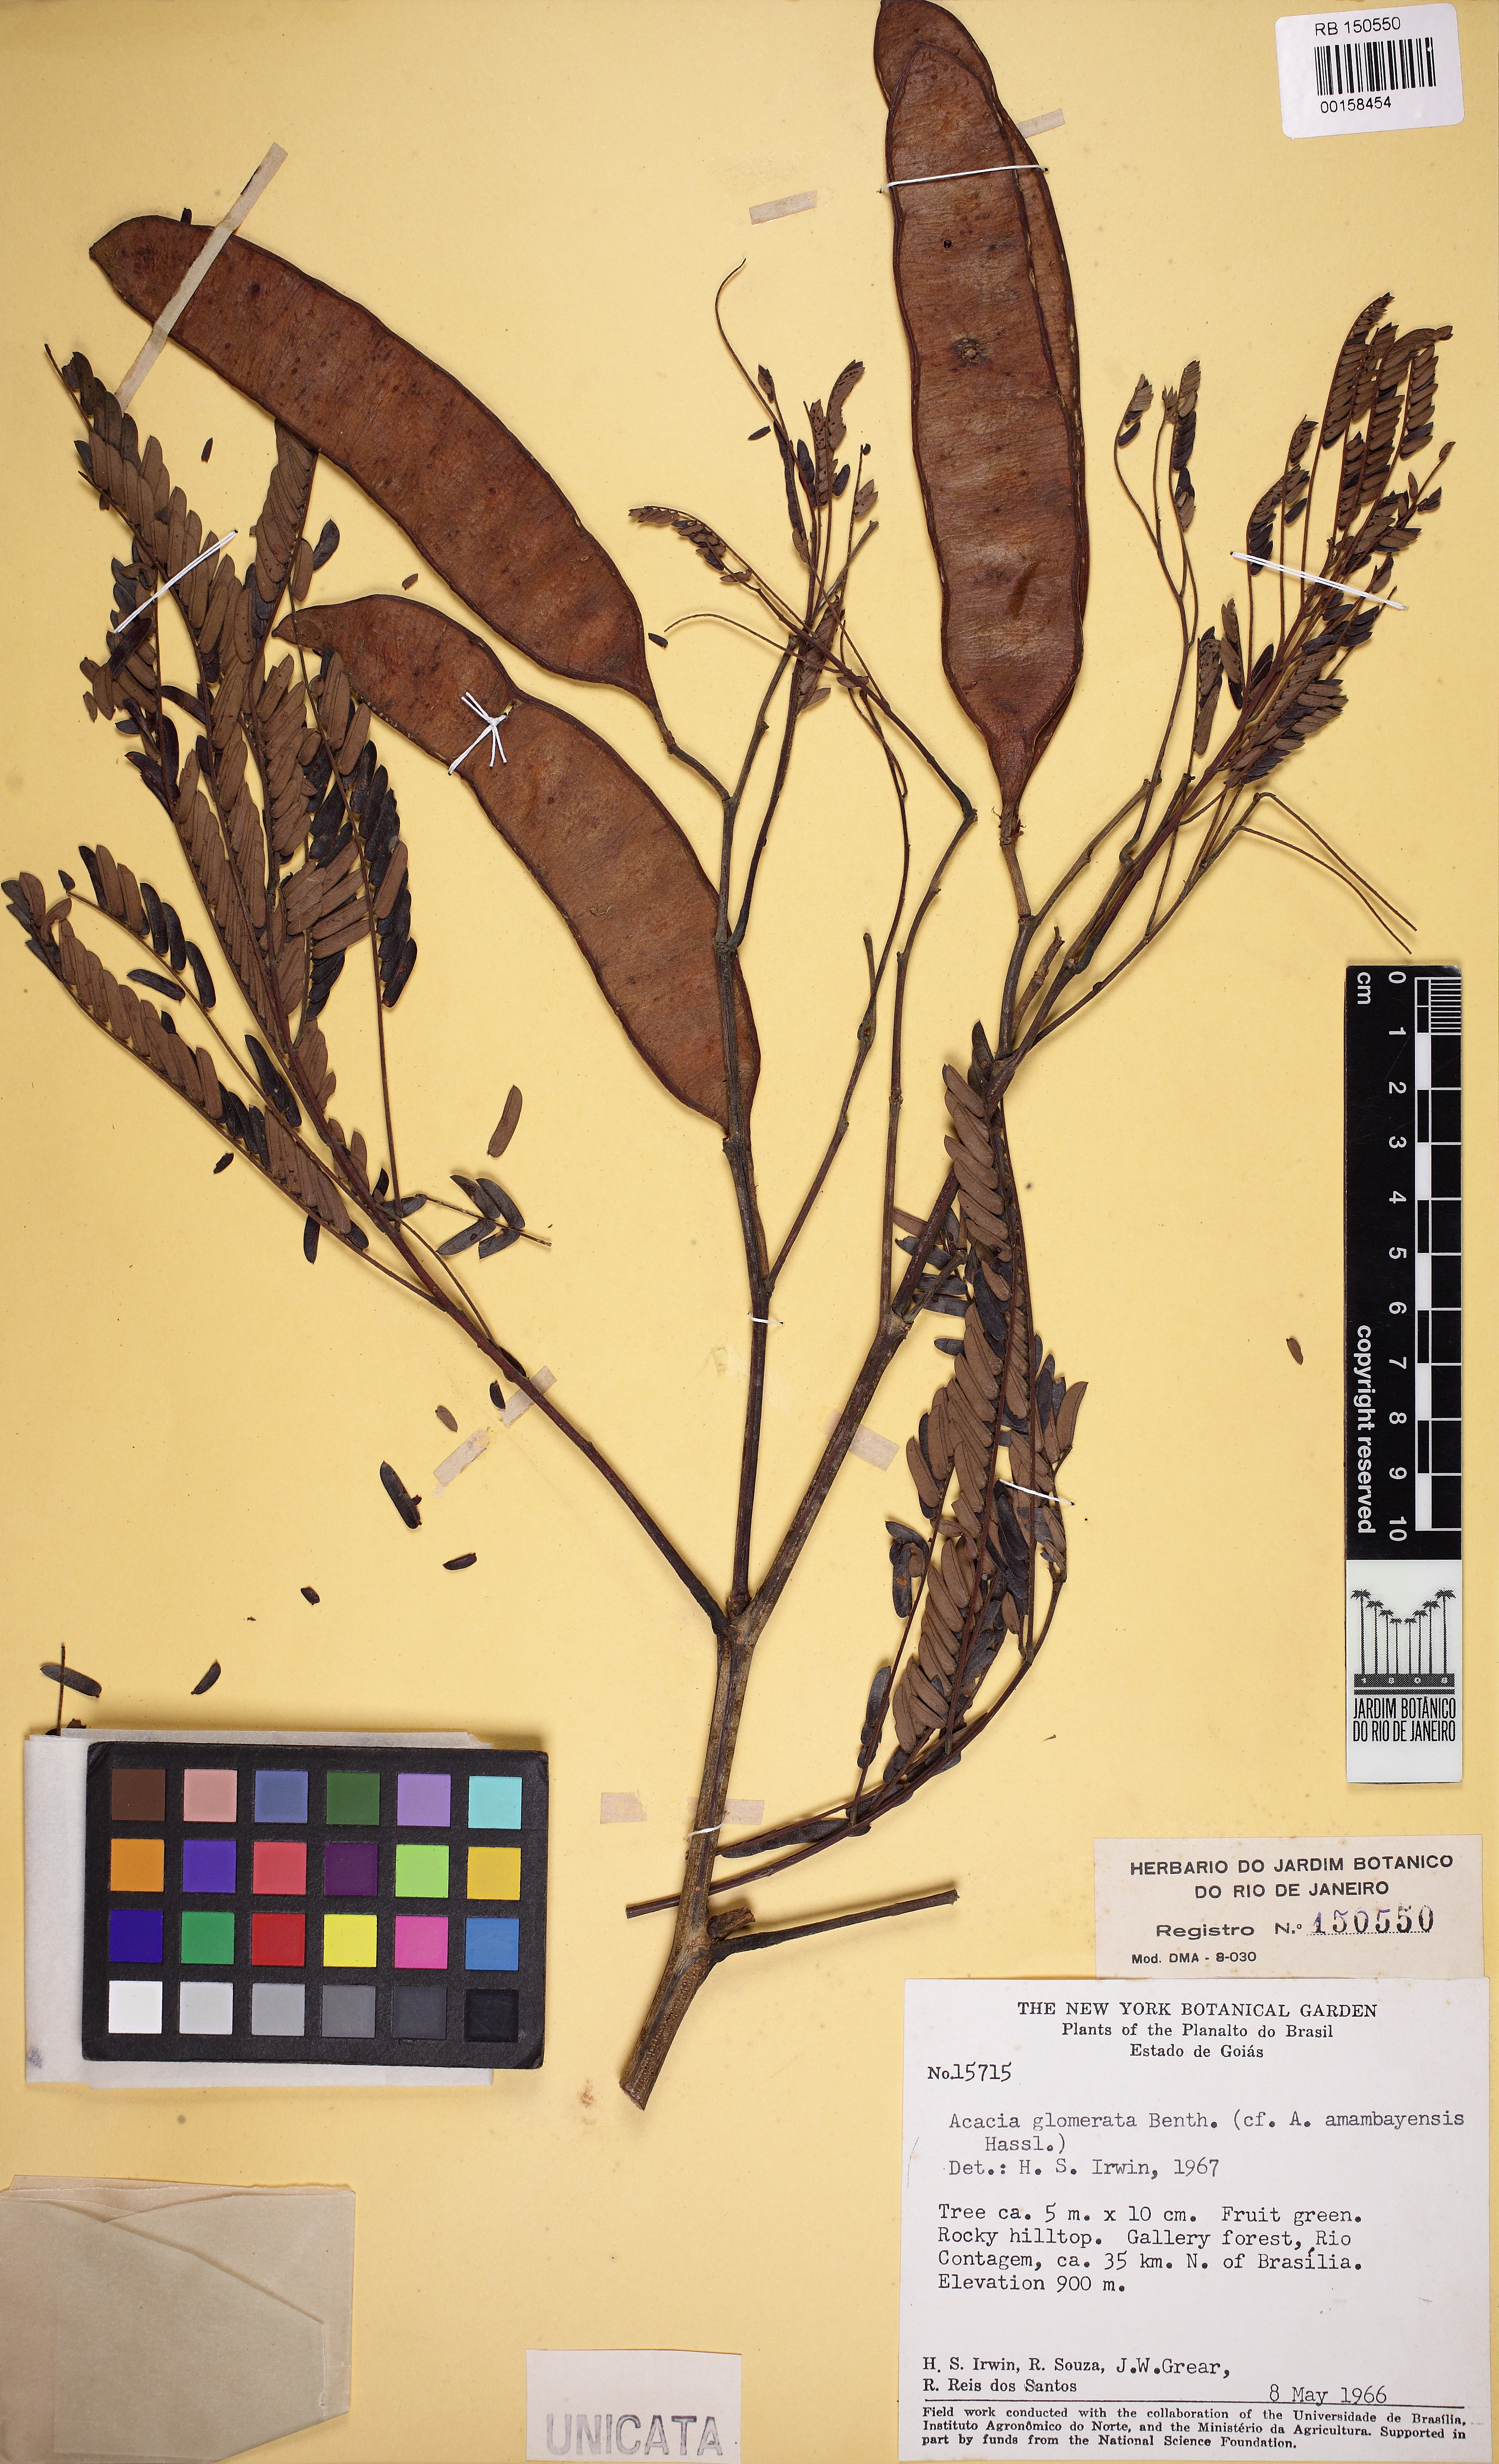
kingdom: Plantae
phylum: Tracheophyta
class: Magnoliopsida
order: Fabales
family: Fabaceae
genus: Senegalia
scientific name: Senegalia polyphylla
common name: White-tamarind
